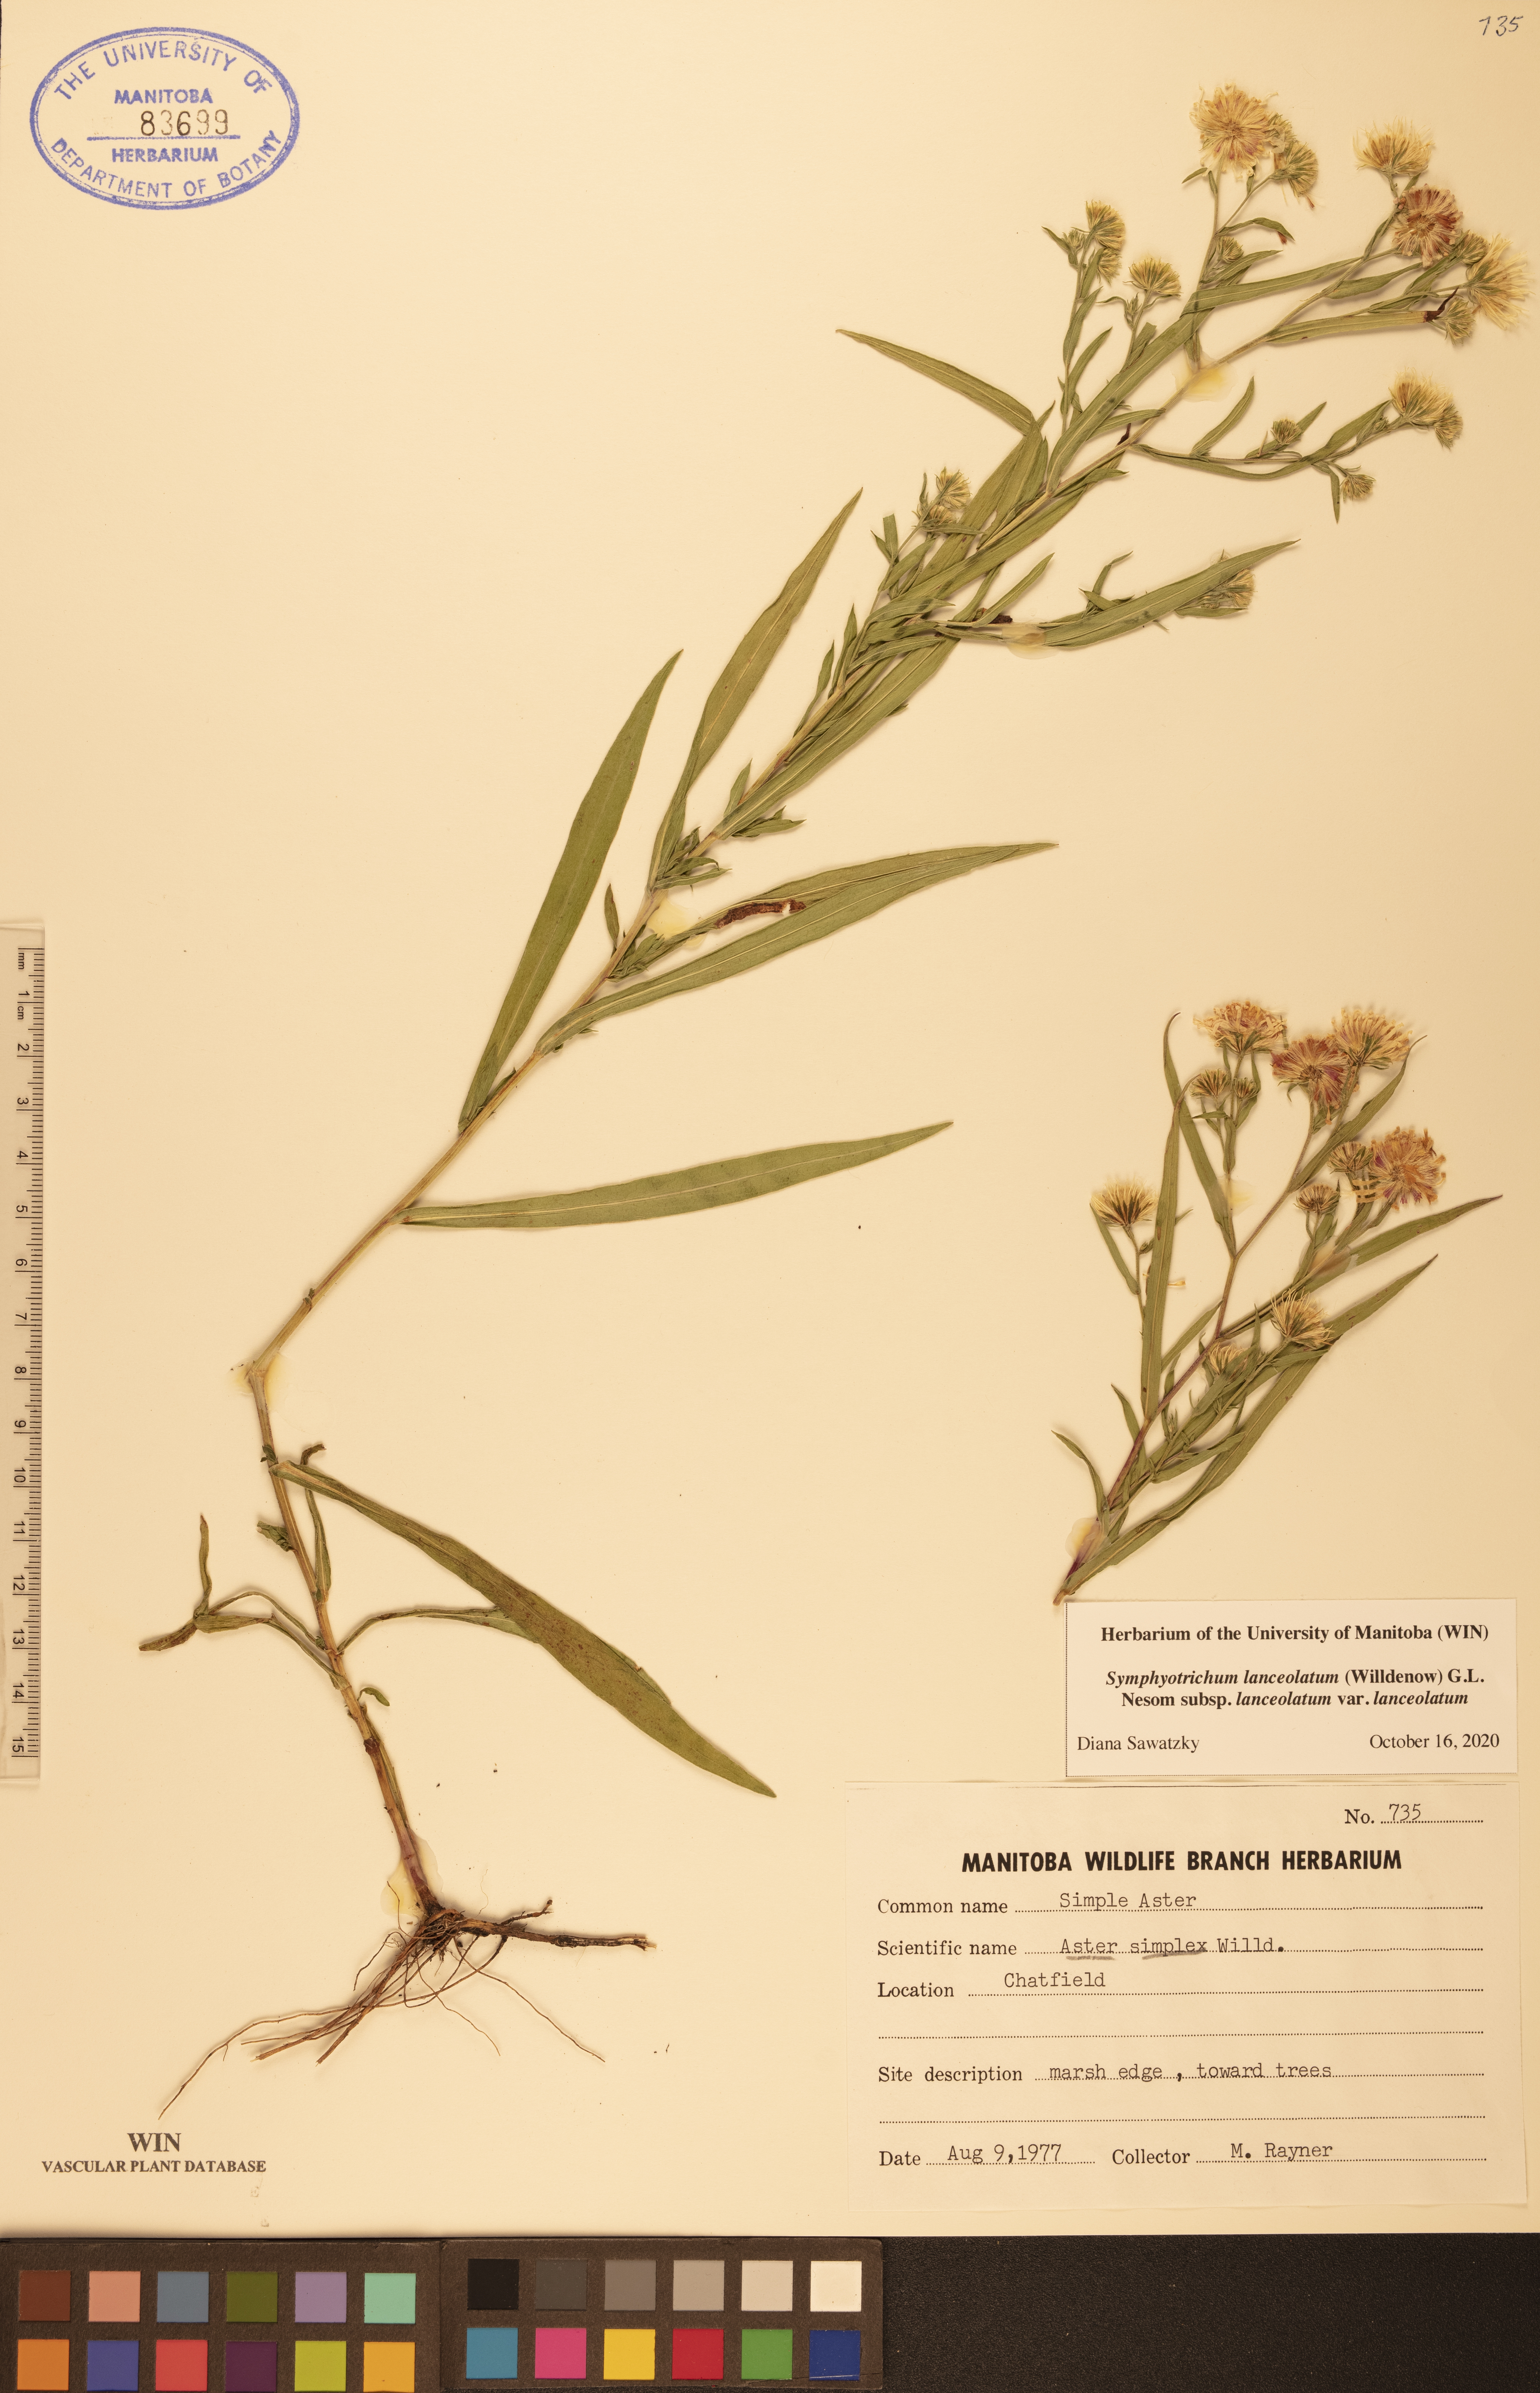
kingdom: Plantae
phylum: Tracheophyta
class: Magnoliopsida
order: Asterales
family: Asteraceae
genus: Symphyotrichum
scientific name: Symphyotrichum lanceolatum
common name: Panicled aster
